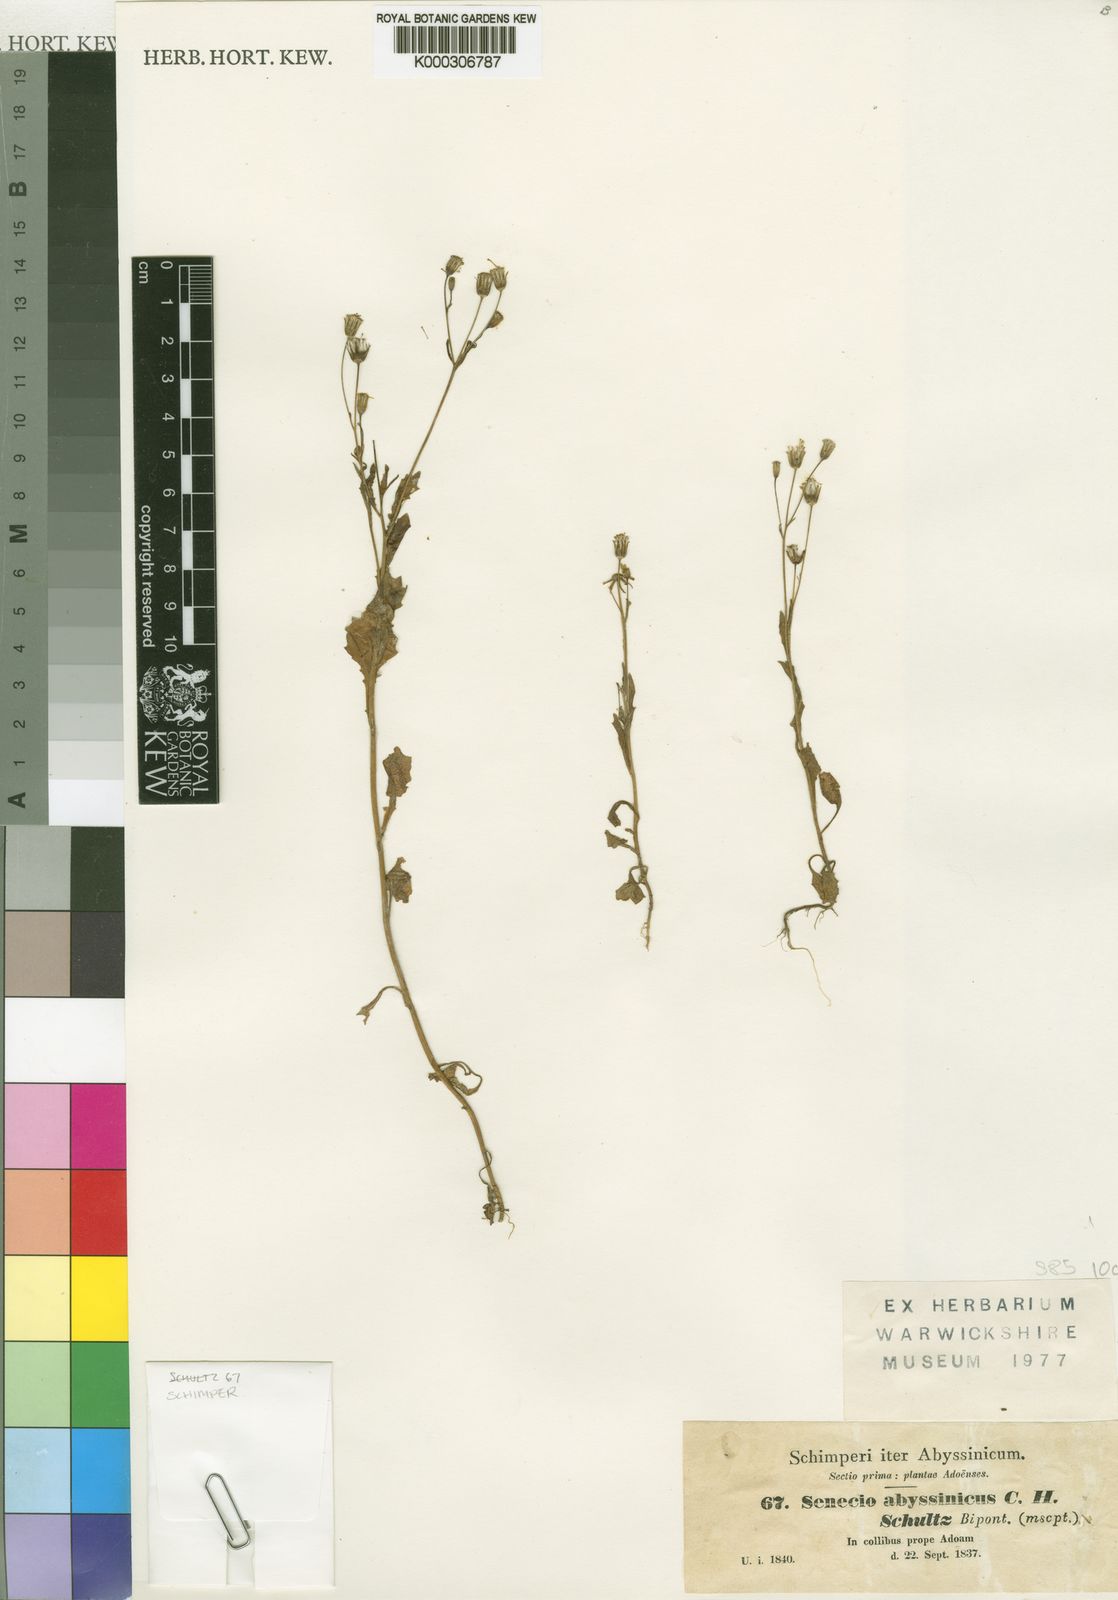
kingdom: Plantae
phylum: Tracheophyta
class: Magnoliopsida
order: Asterales
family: Asteraceae
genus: Emilia
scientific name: Emilia abyssinica
